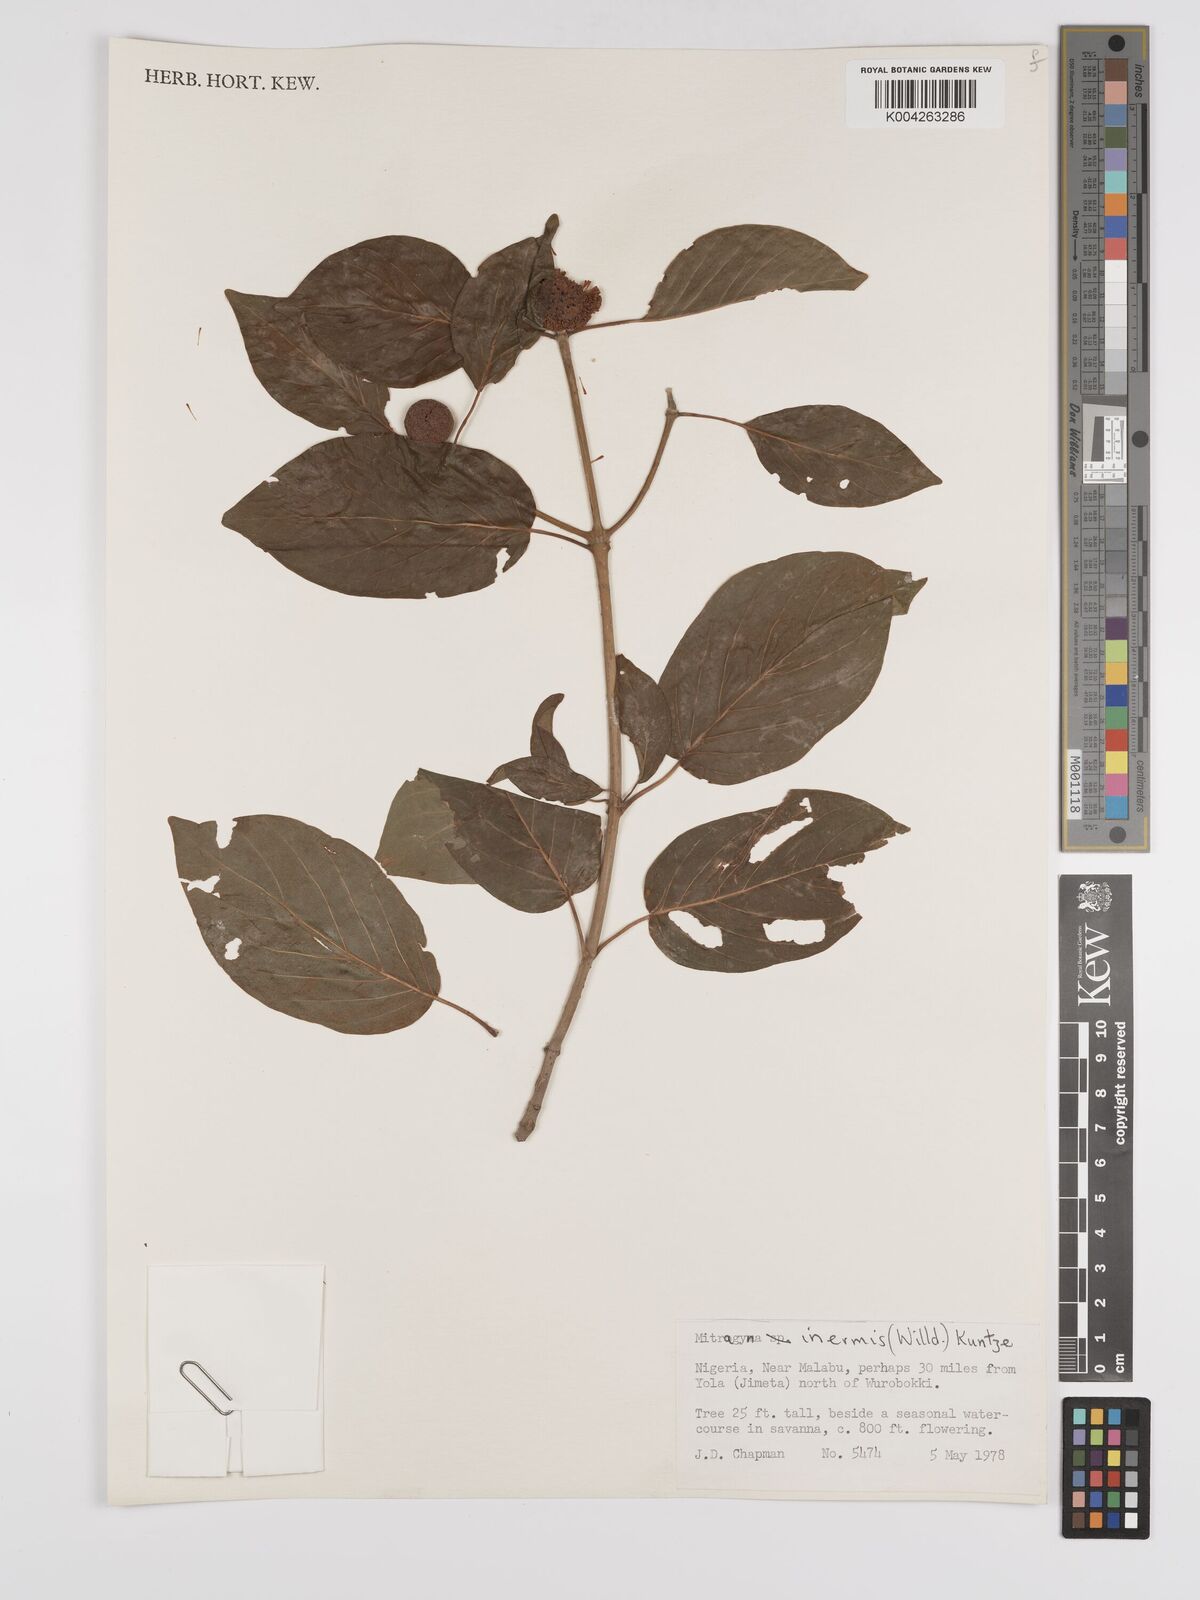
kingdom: Plantae
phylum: Tracheophyta
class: Magnoliopsida
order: Gentianales
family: Rubiaceae
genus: Mitragyna
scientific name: Mitragyna inermis
